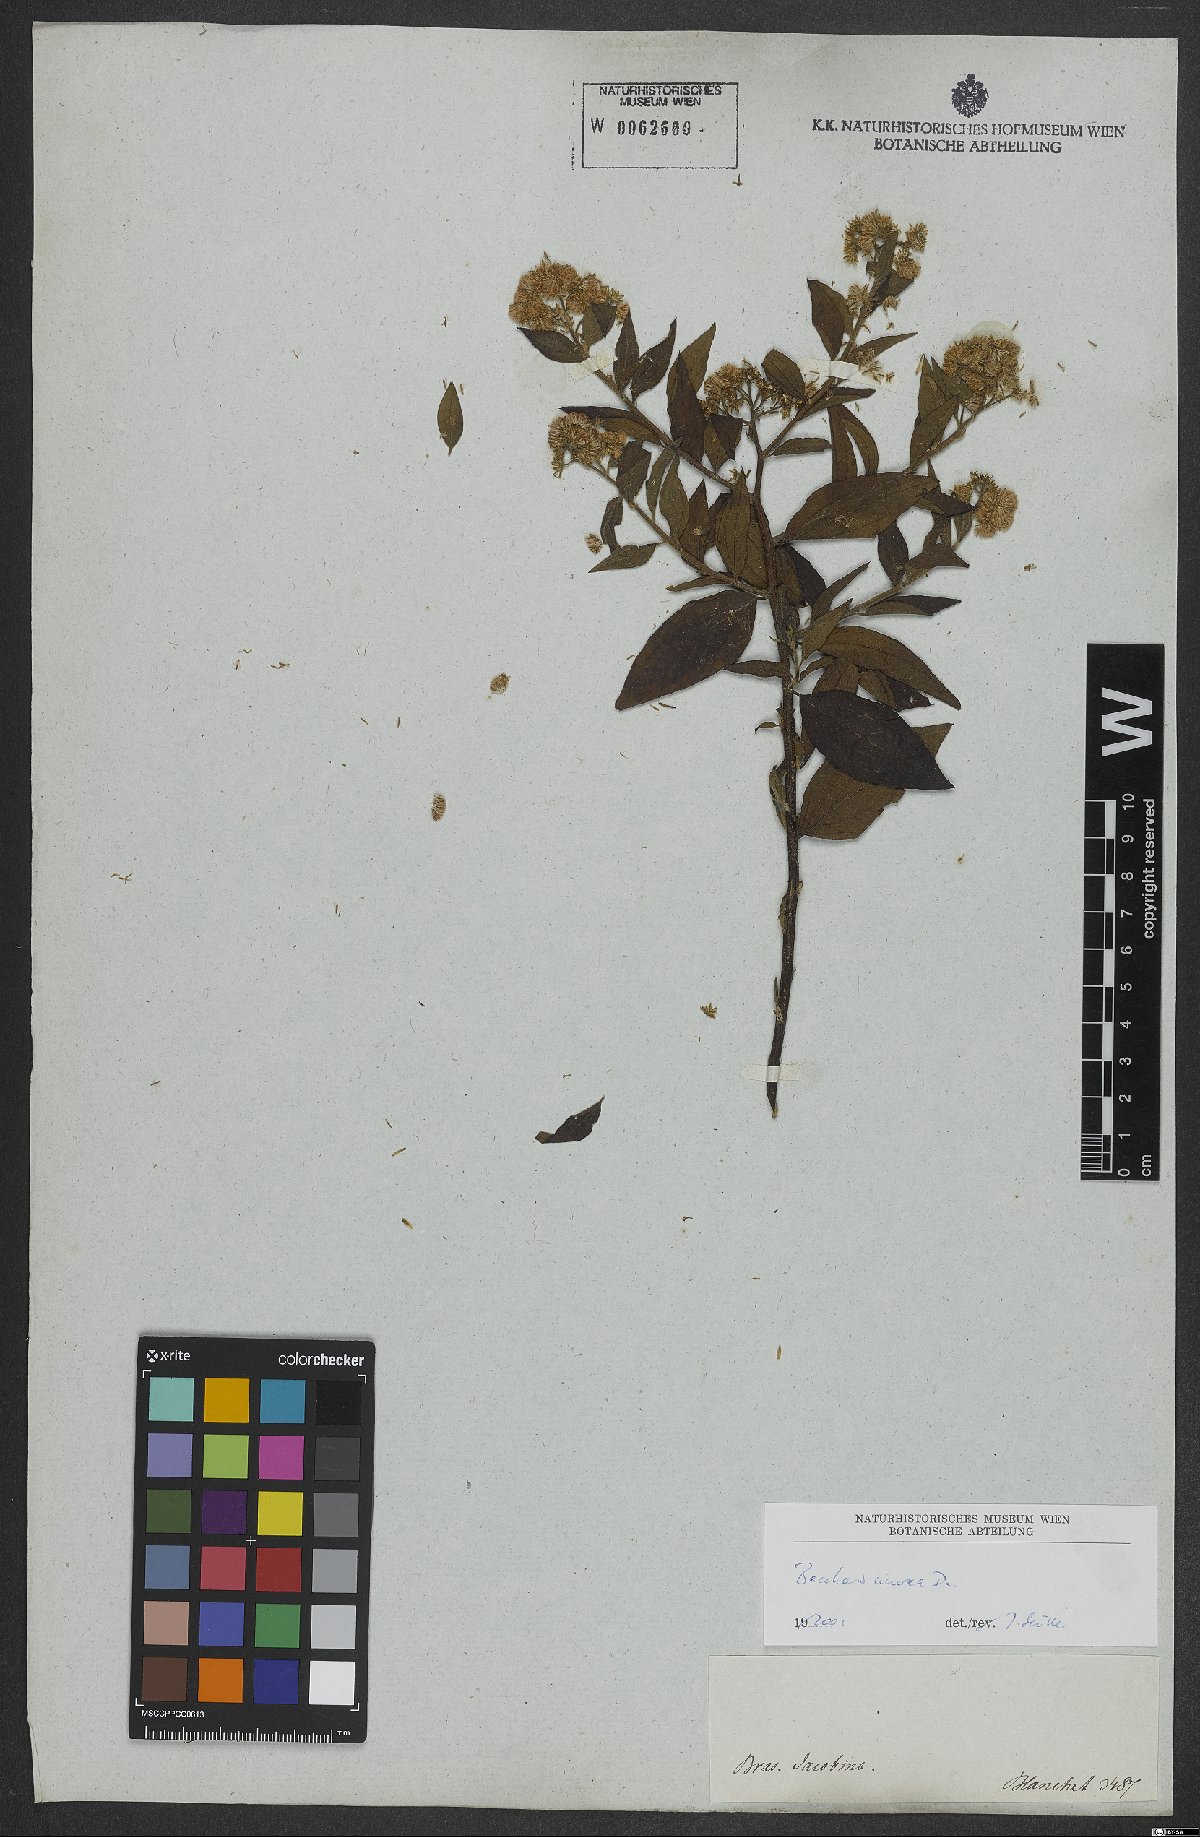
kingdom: Plantae
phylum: Tracheophyta
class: Magnoliopsida
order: Asterales
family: Asteraceae
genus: Baccharis
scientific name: Baccharis trinervis
